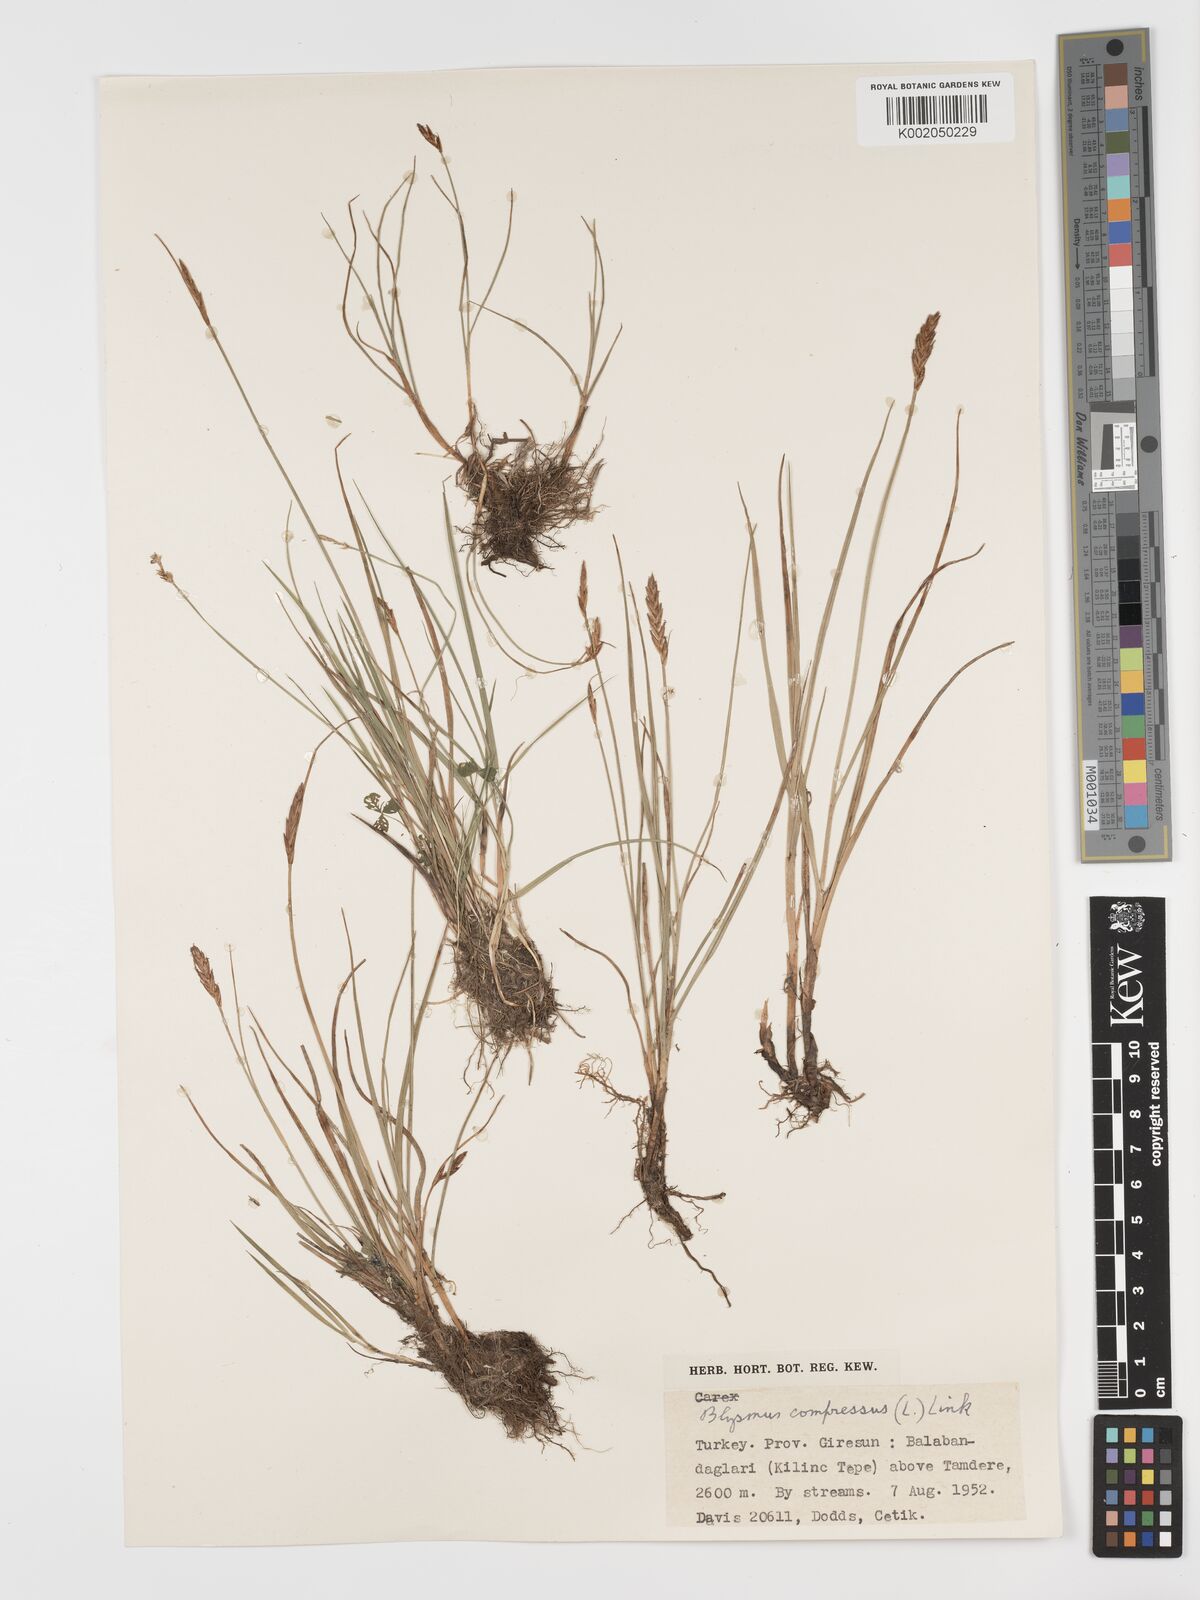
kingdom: Plantae
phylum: Tracheophyta
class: Liliopsida
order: Poales
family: Cyperaceae
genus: Blysmus
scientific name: Blysmus compressus
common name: Flat-sedge
